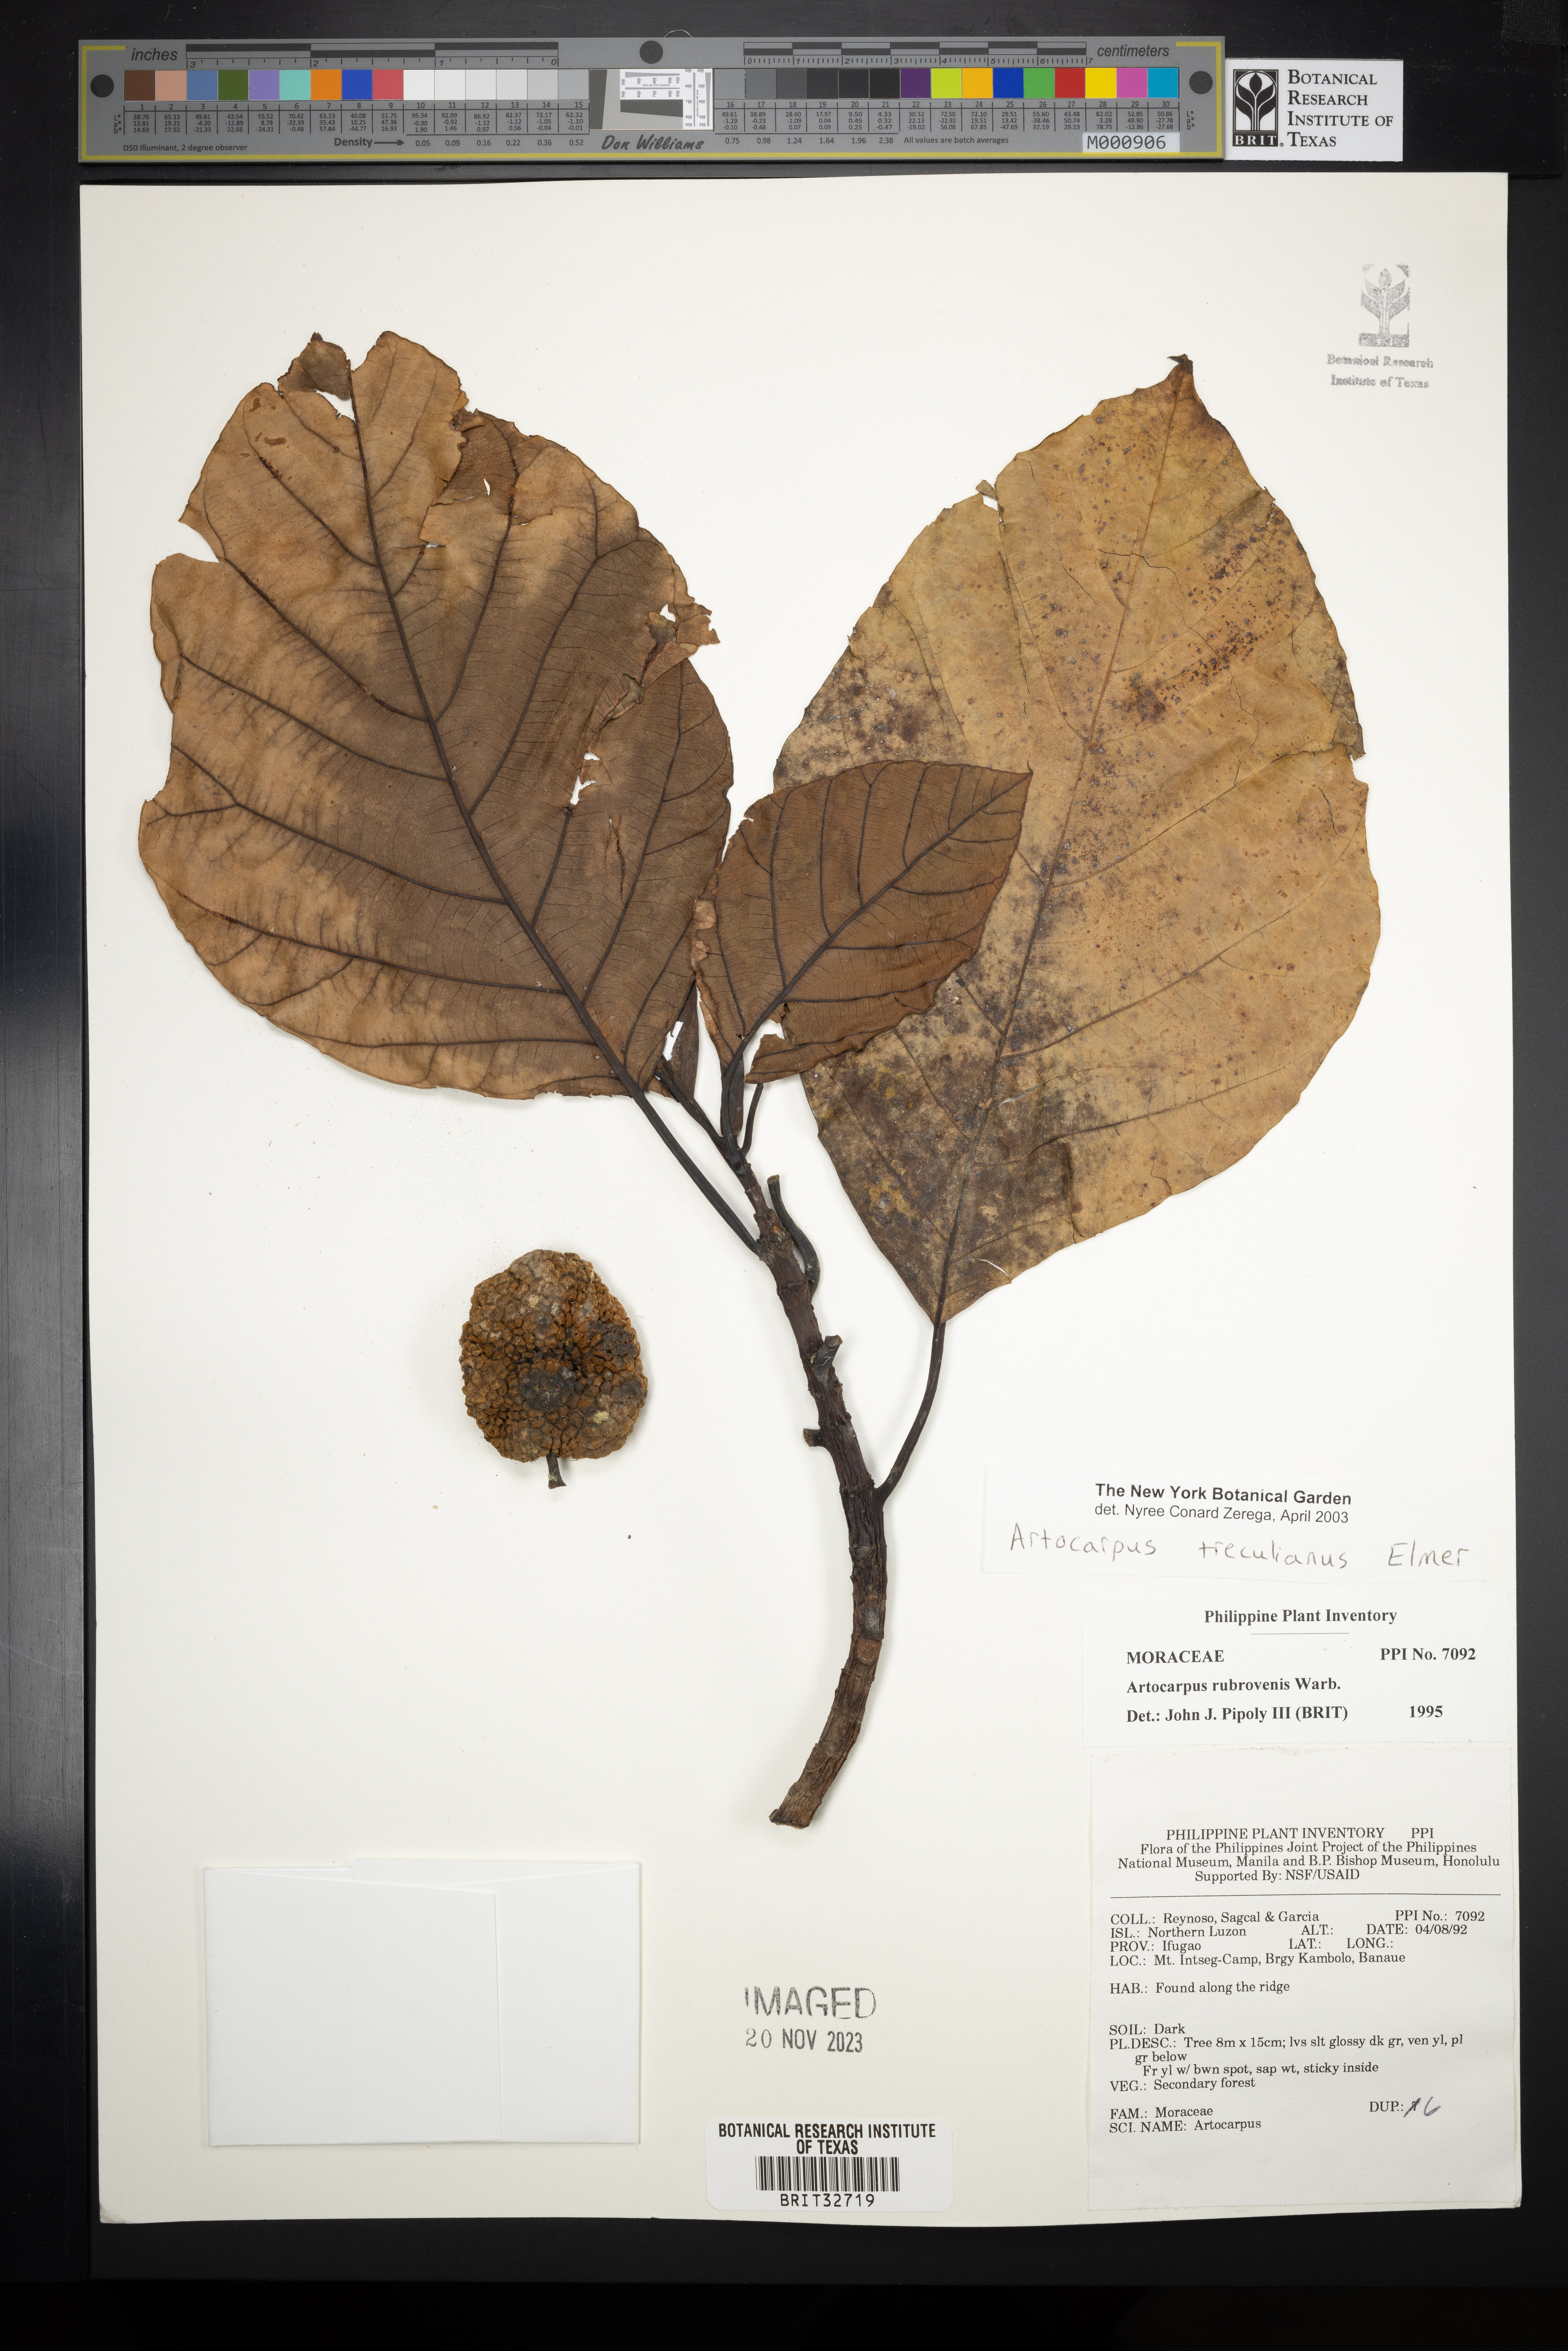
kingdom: Plantae
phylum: Tracheophyta
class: Magnoliopsida
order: Rosales
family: Moraceae
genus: Artocarpus
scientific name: Artocarpus treculianus
